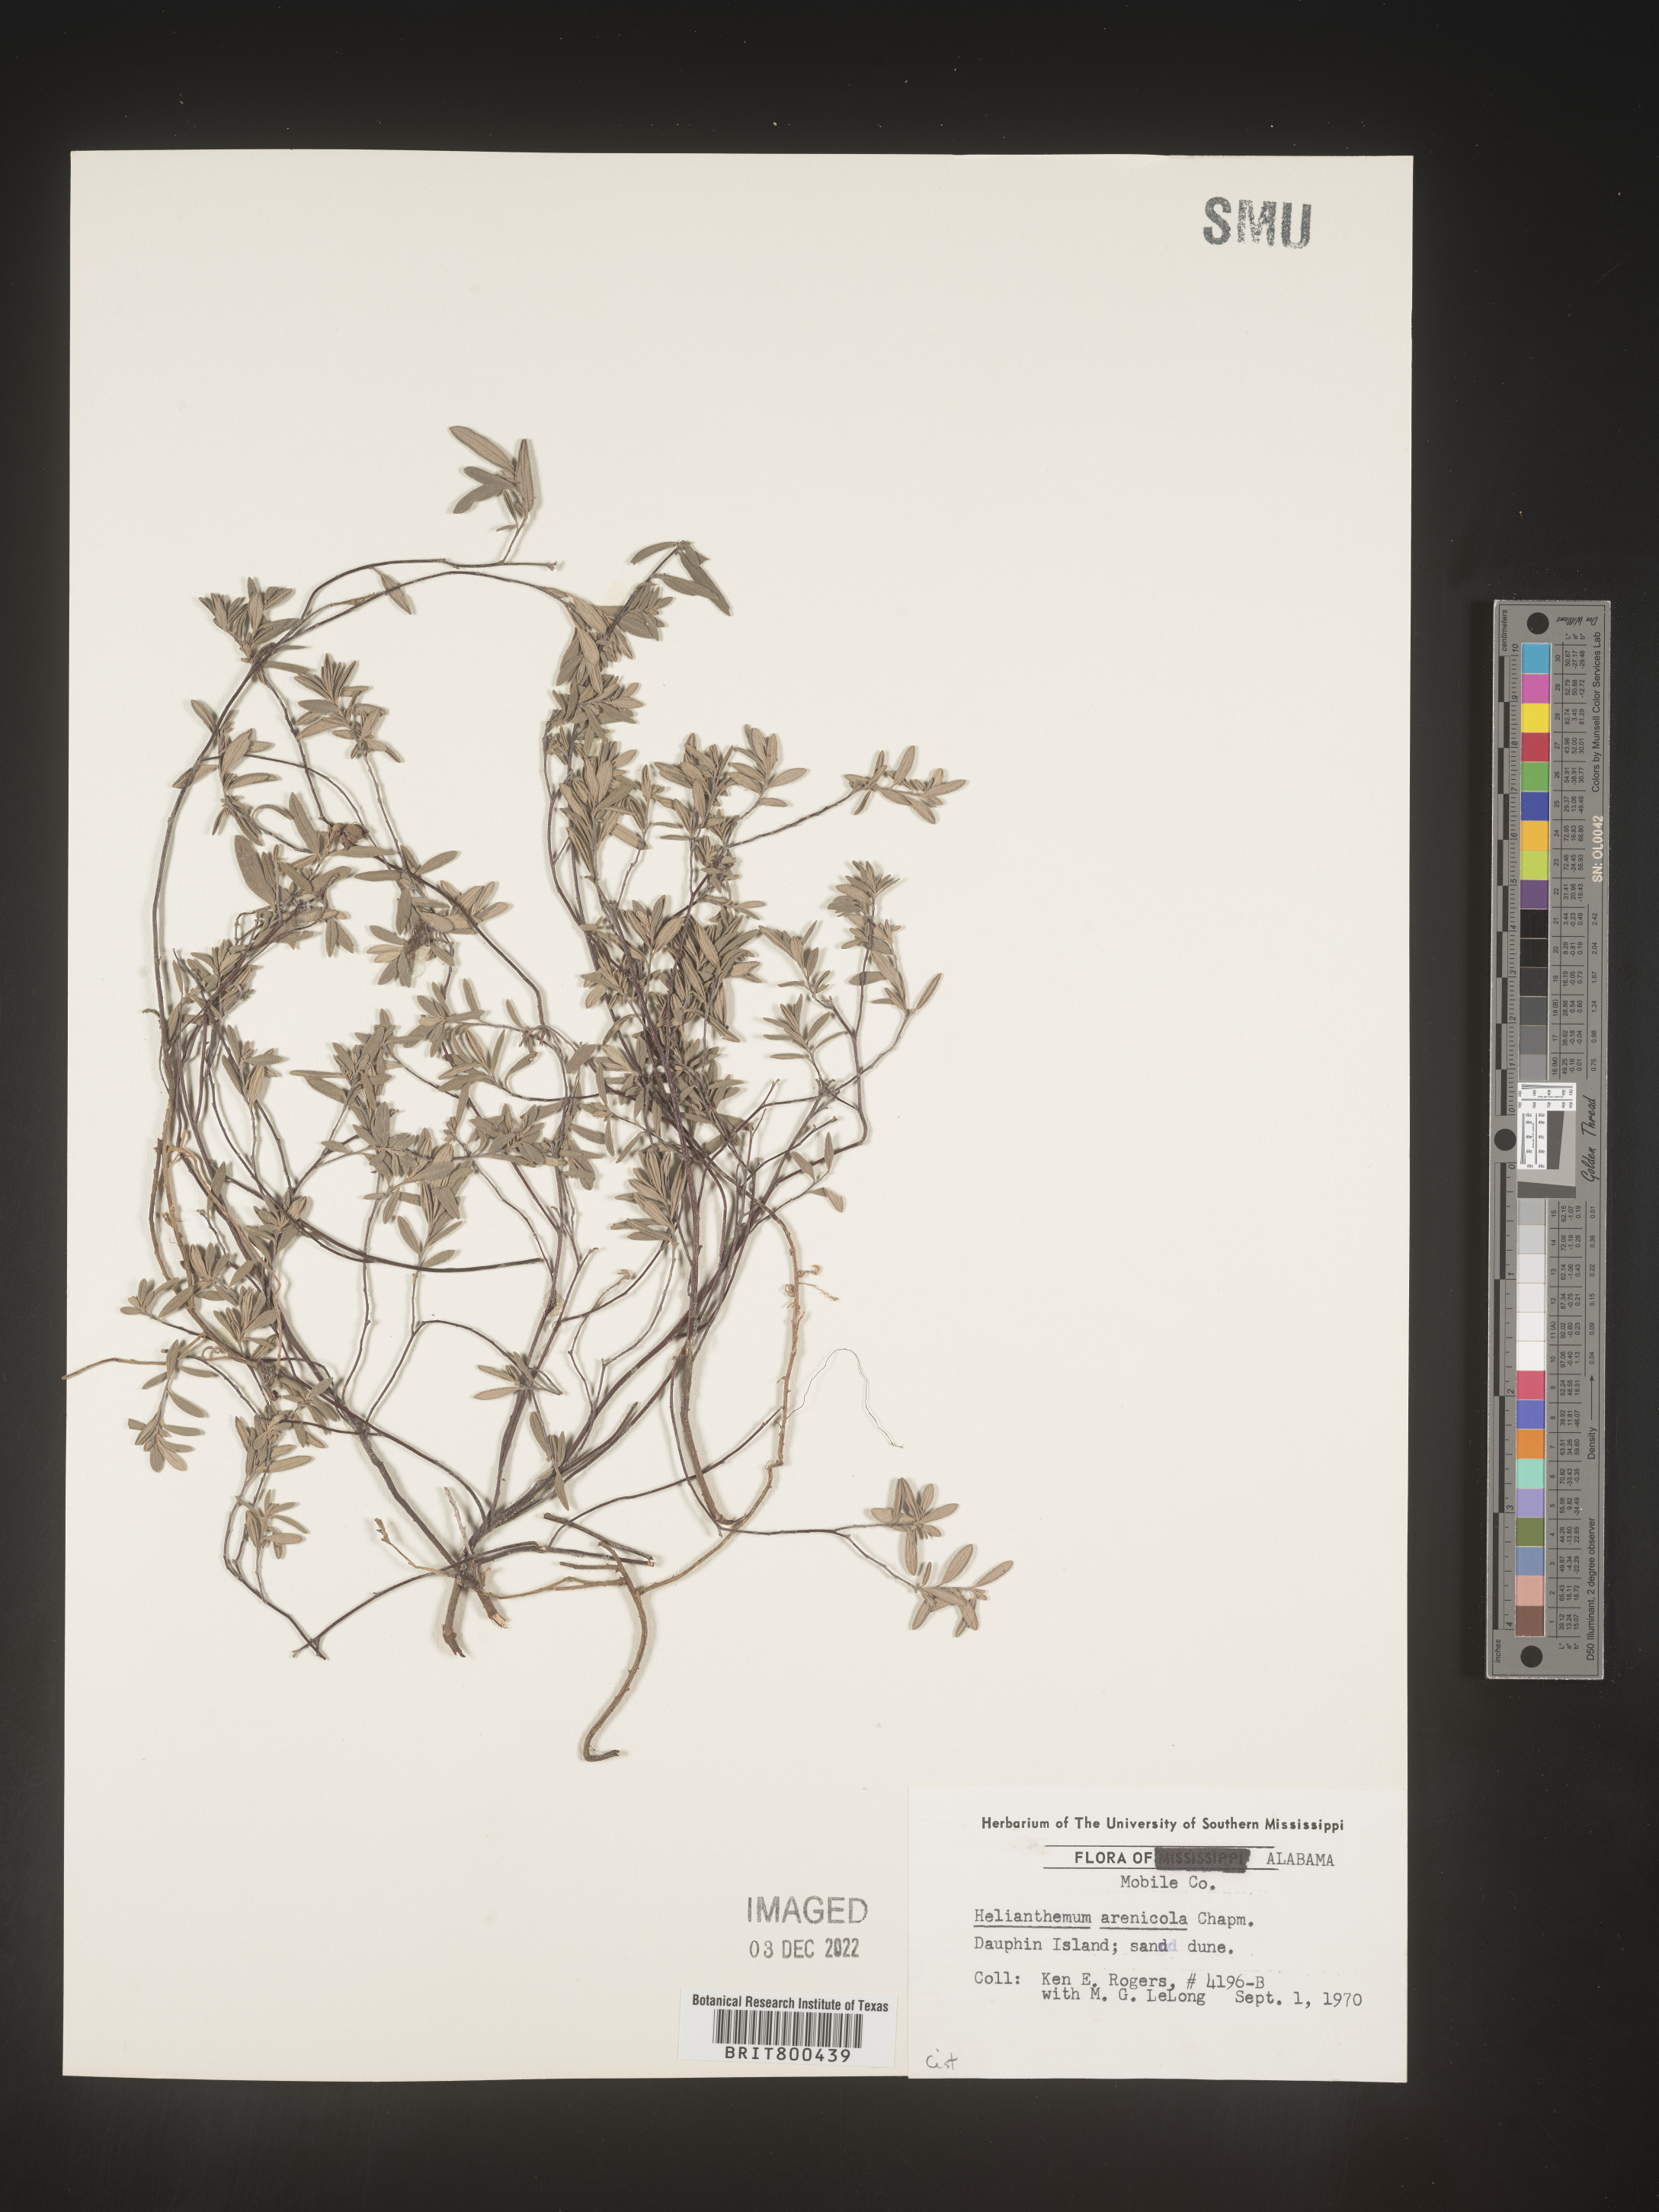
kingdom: Plantae
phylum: Tracheophyta
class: Magnoliopsida
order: Malvales
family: Cistaceae
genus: Helianthemum
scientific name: Helianthemum
